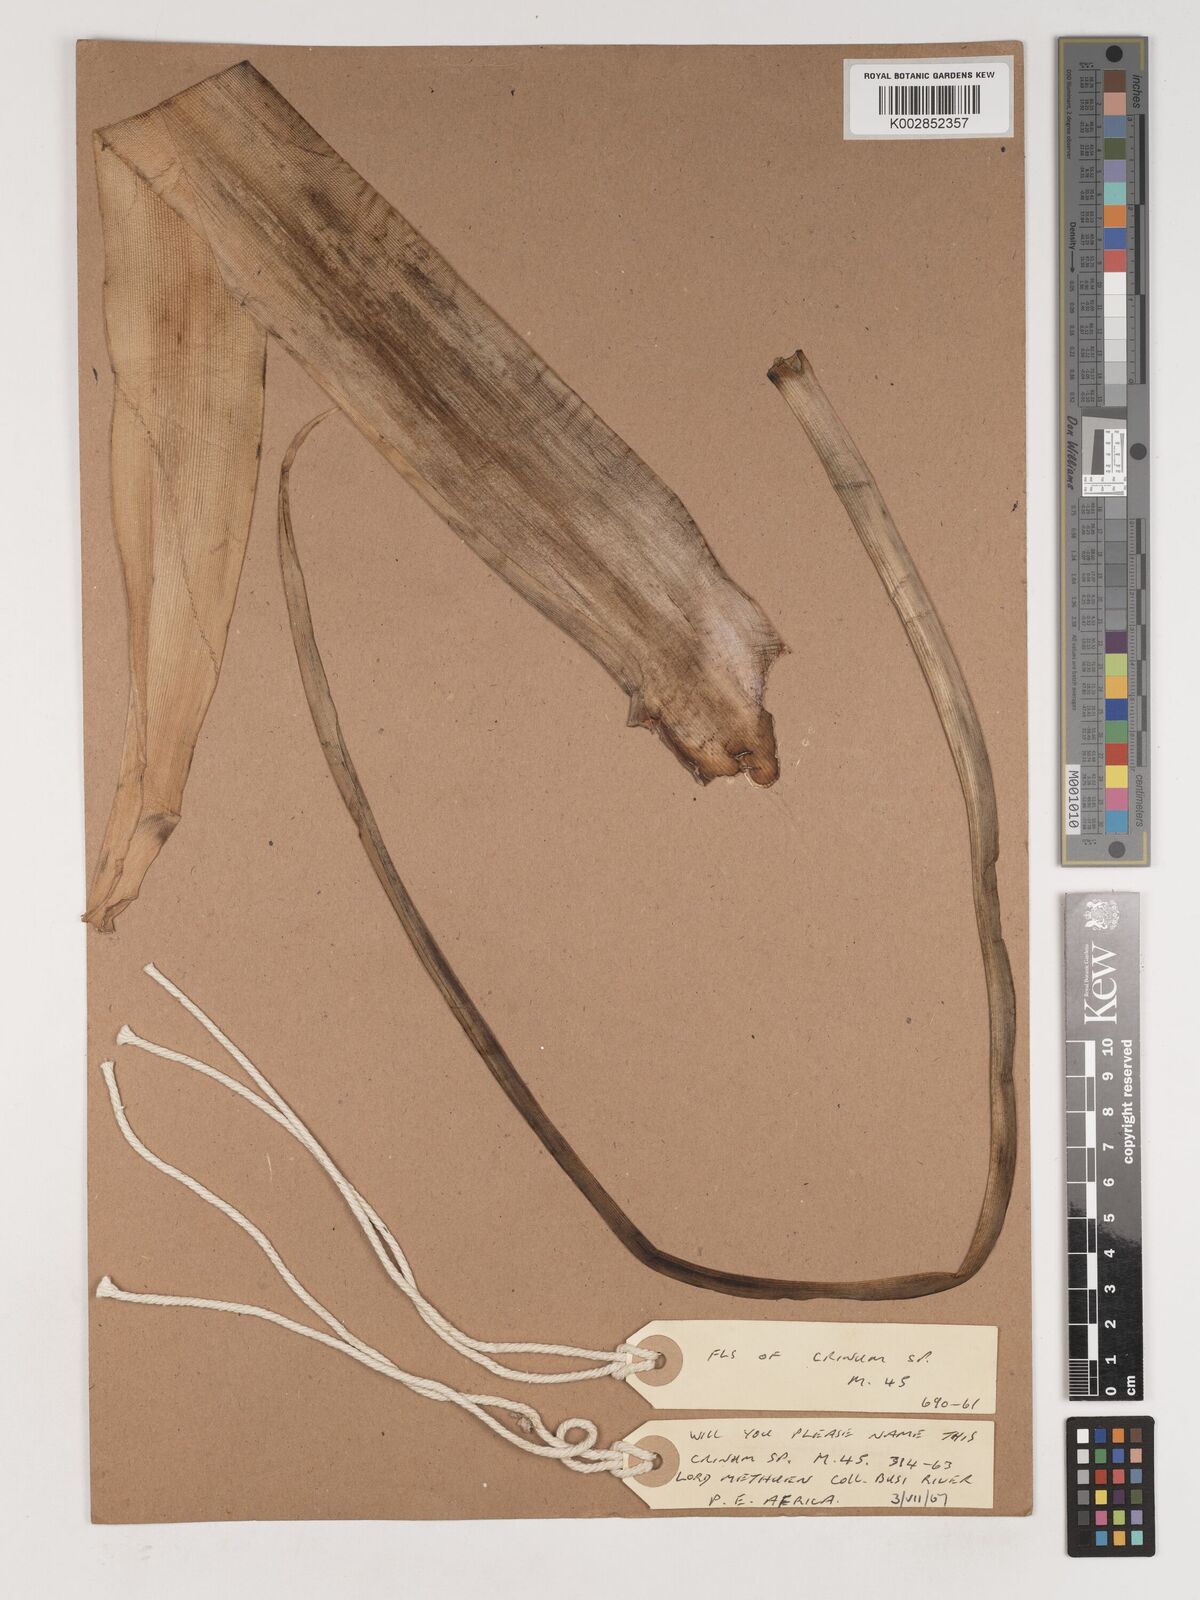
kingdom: Plantae
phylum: Tracheophyta
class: Liliopsida
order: Asparagales
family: Amaryllidaceae
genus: Crinum
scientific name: Crinum
